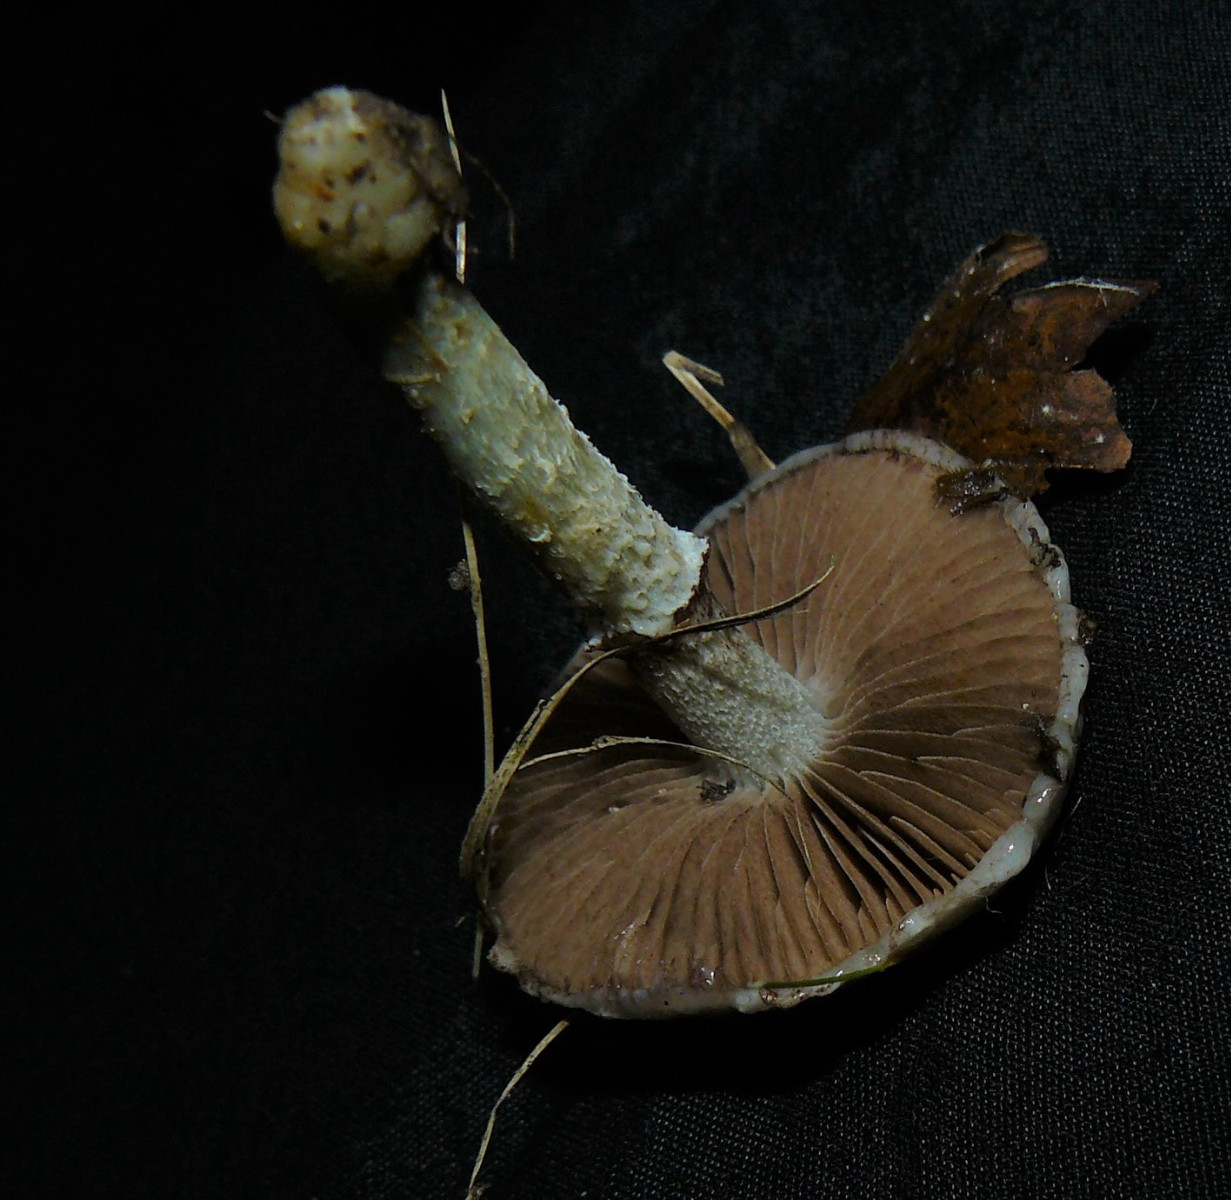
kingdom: Fungi
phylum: Basidiomycota
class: Agaricomycetes
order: Agaricales
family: Strophariaceae
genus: Stropharia
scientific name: Stropharia cyanea
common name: blågrøn bredblad
